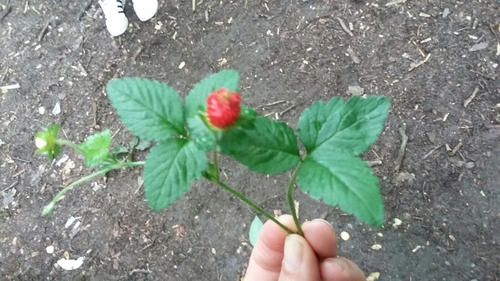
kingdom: Plantae
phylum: Tracheophyta
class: Magnoliopsida
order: Rosales
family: Rosaceae
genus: Potentilla
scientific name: Potentilla indica
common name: Yellow-flowered strawberry
